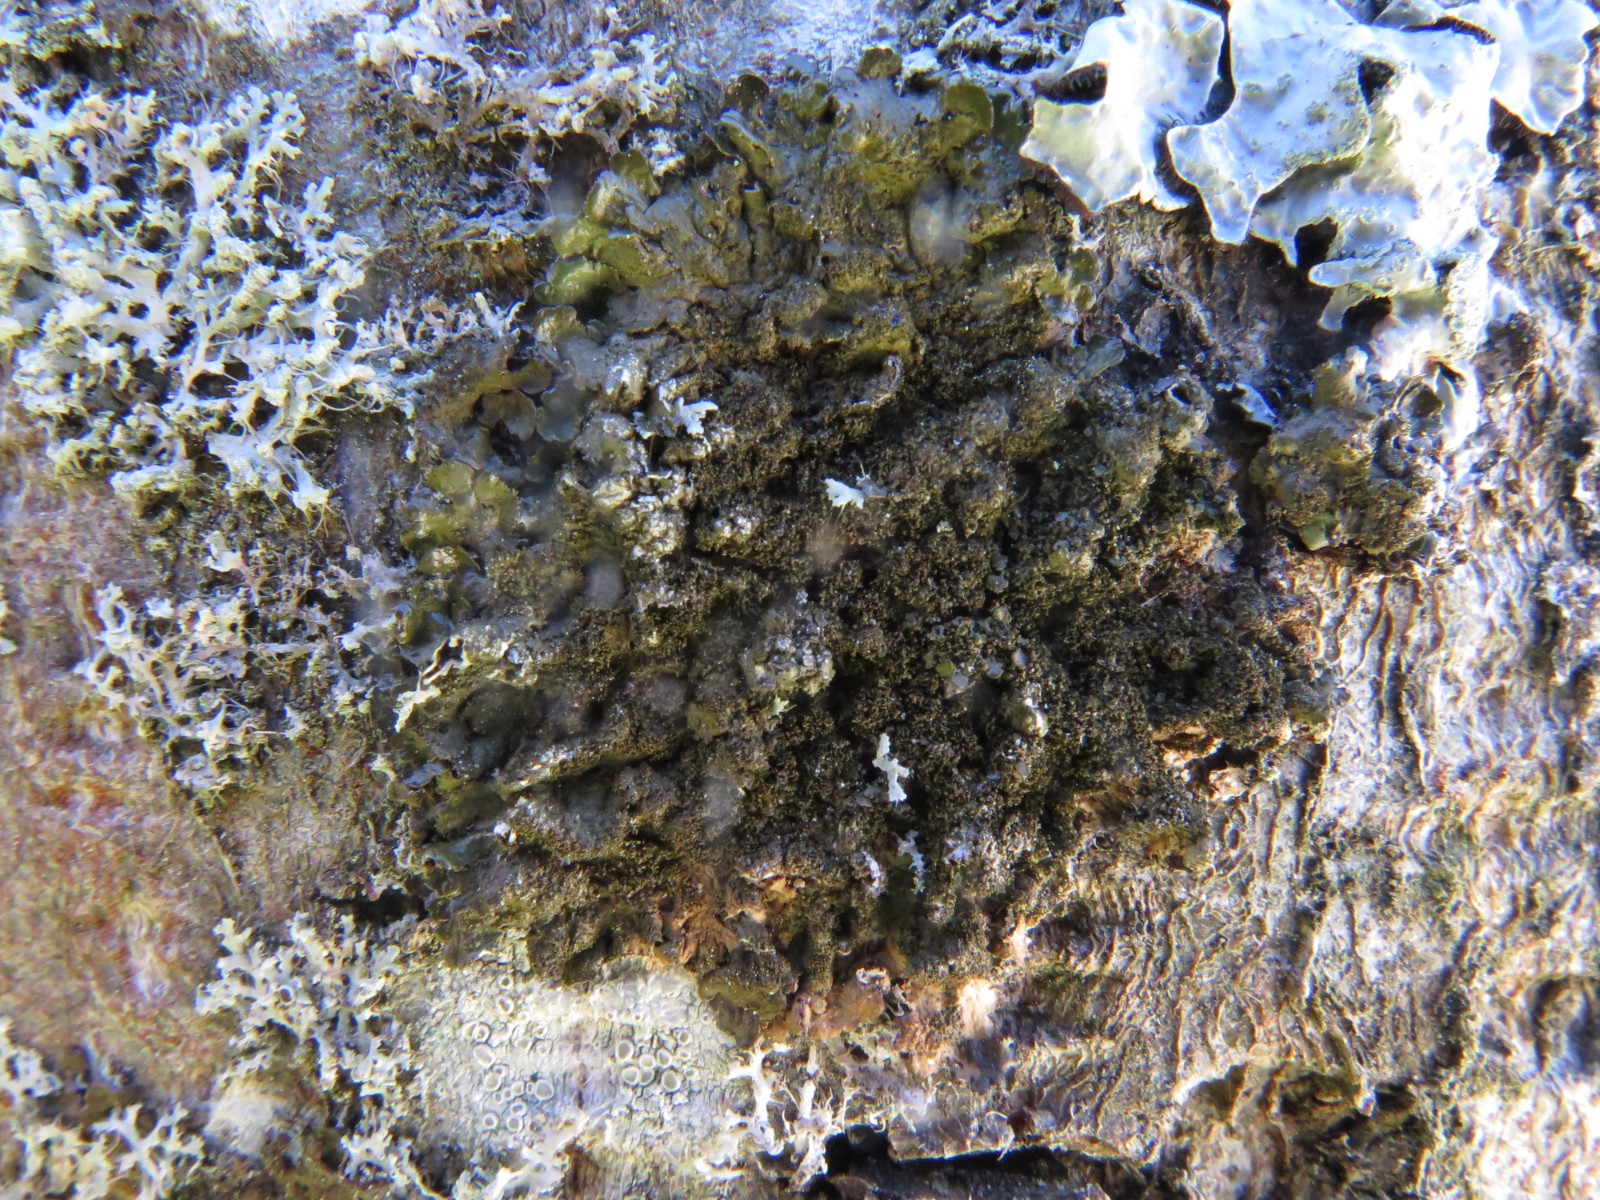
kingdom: Fungi
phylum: Ascomycota
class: Lecanoromycetes
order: Lecanorales
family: Parmeliaceae
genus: Melanelixia
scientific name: Melanelixia subaurifera
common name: guldpudret skållav
